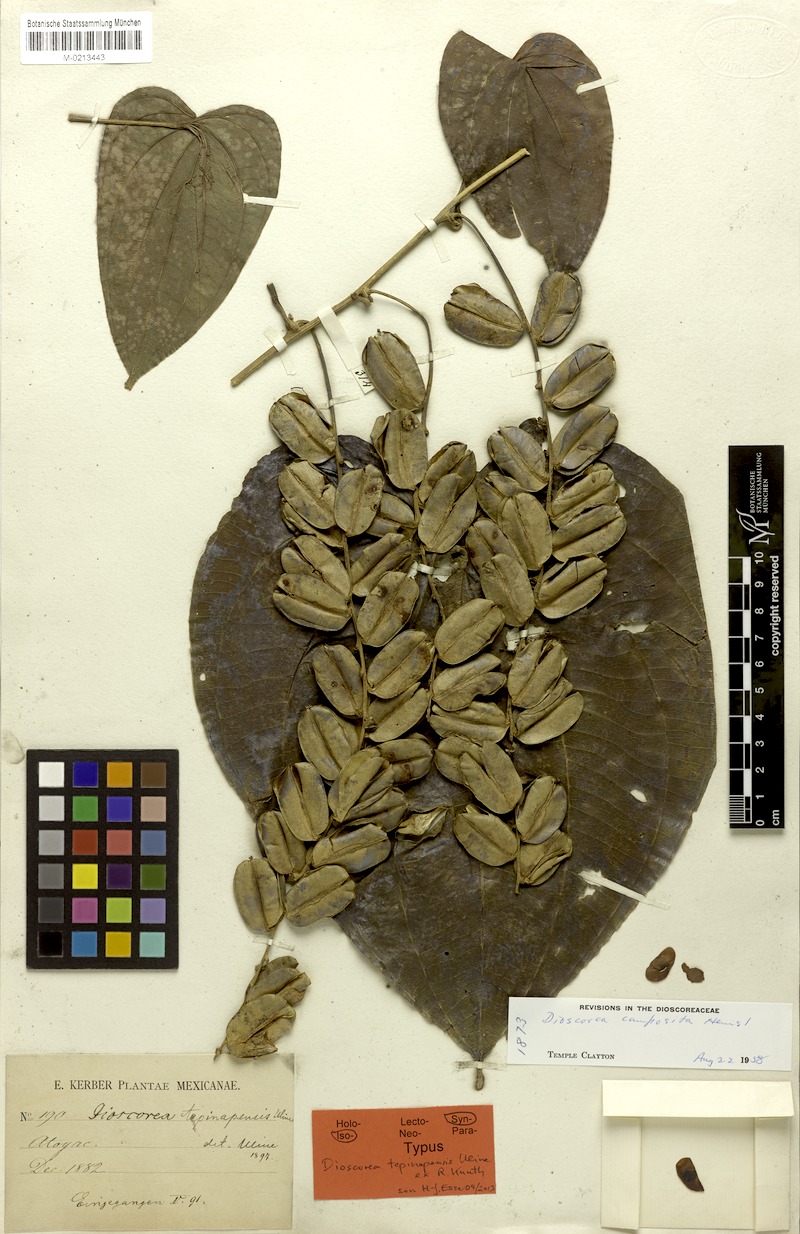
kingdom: Plantae
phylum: Tracheophyta
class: Liliopsida
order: Dioscoreales
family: Dioscoreaceae
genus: Dioscorea
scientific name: Dioscorea composita
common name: Barbasco
